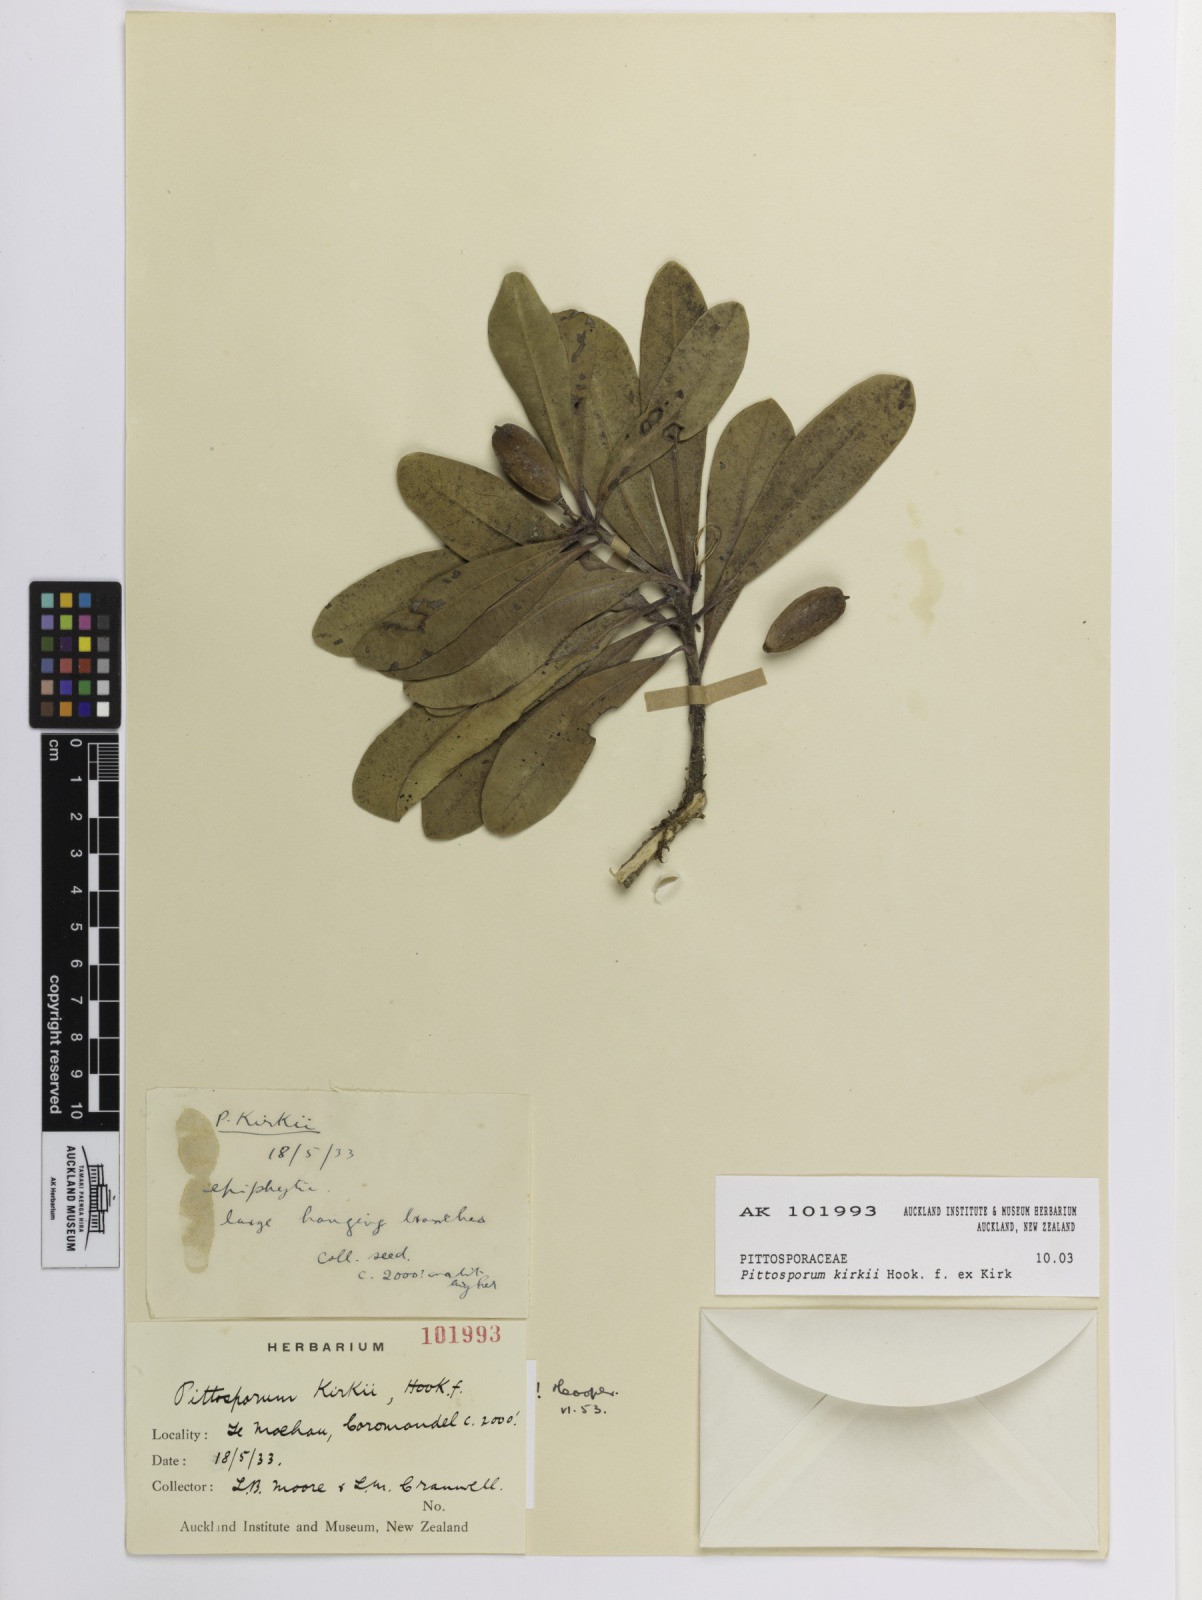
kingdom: Plantae
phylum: Tracheophyta
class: Magnoliopsida
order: Apiales
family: Pittosporaceae
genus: Pittosporum
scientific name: Pittosporum kirkii
